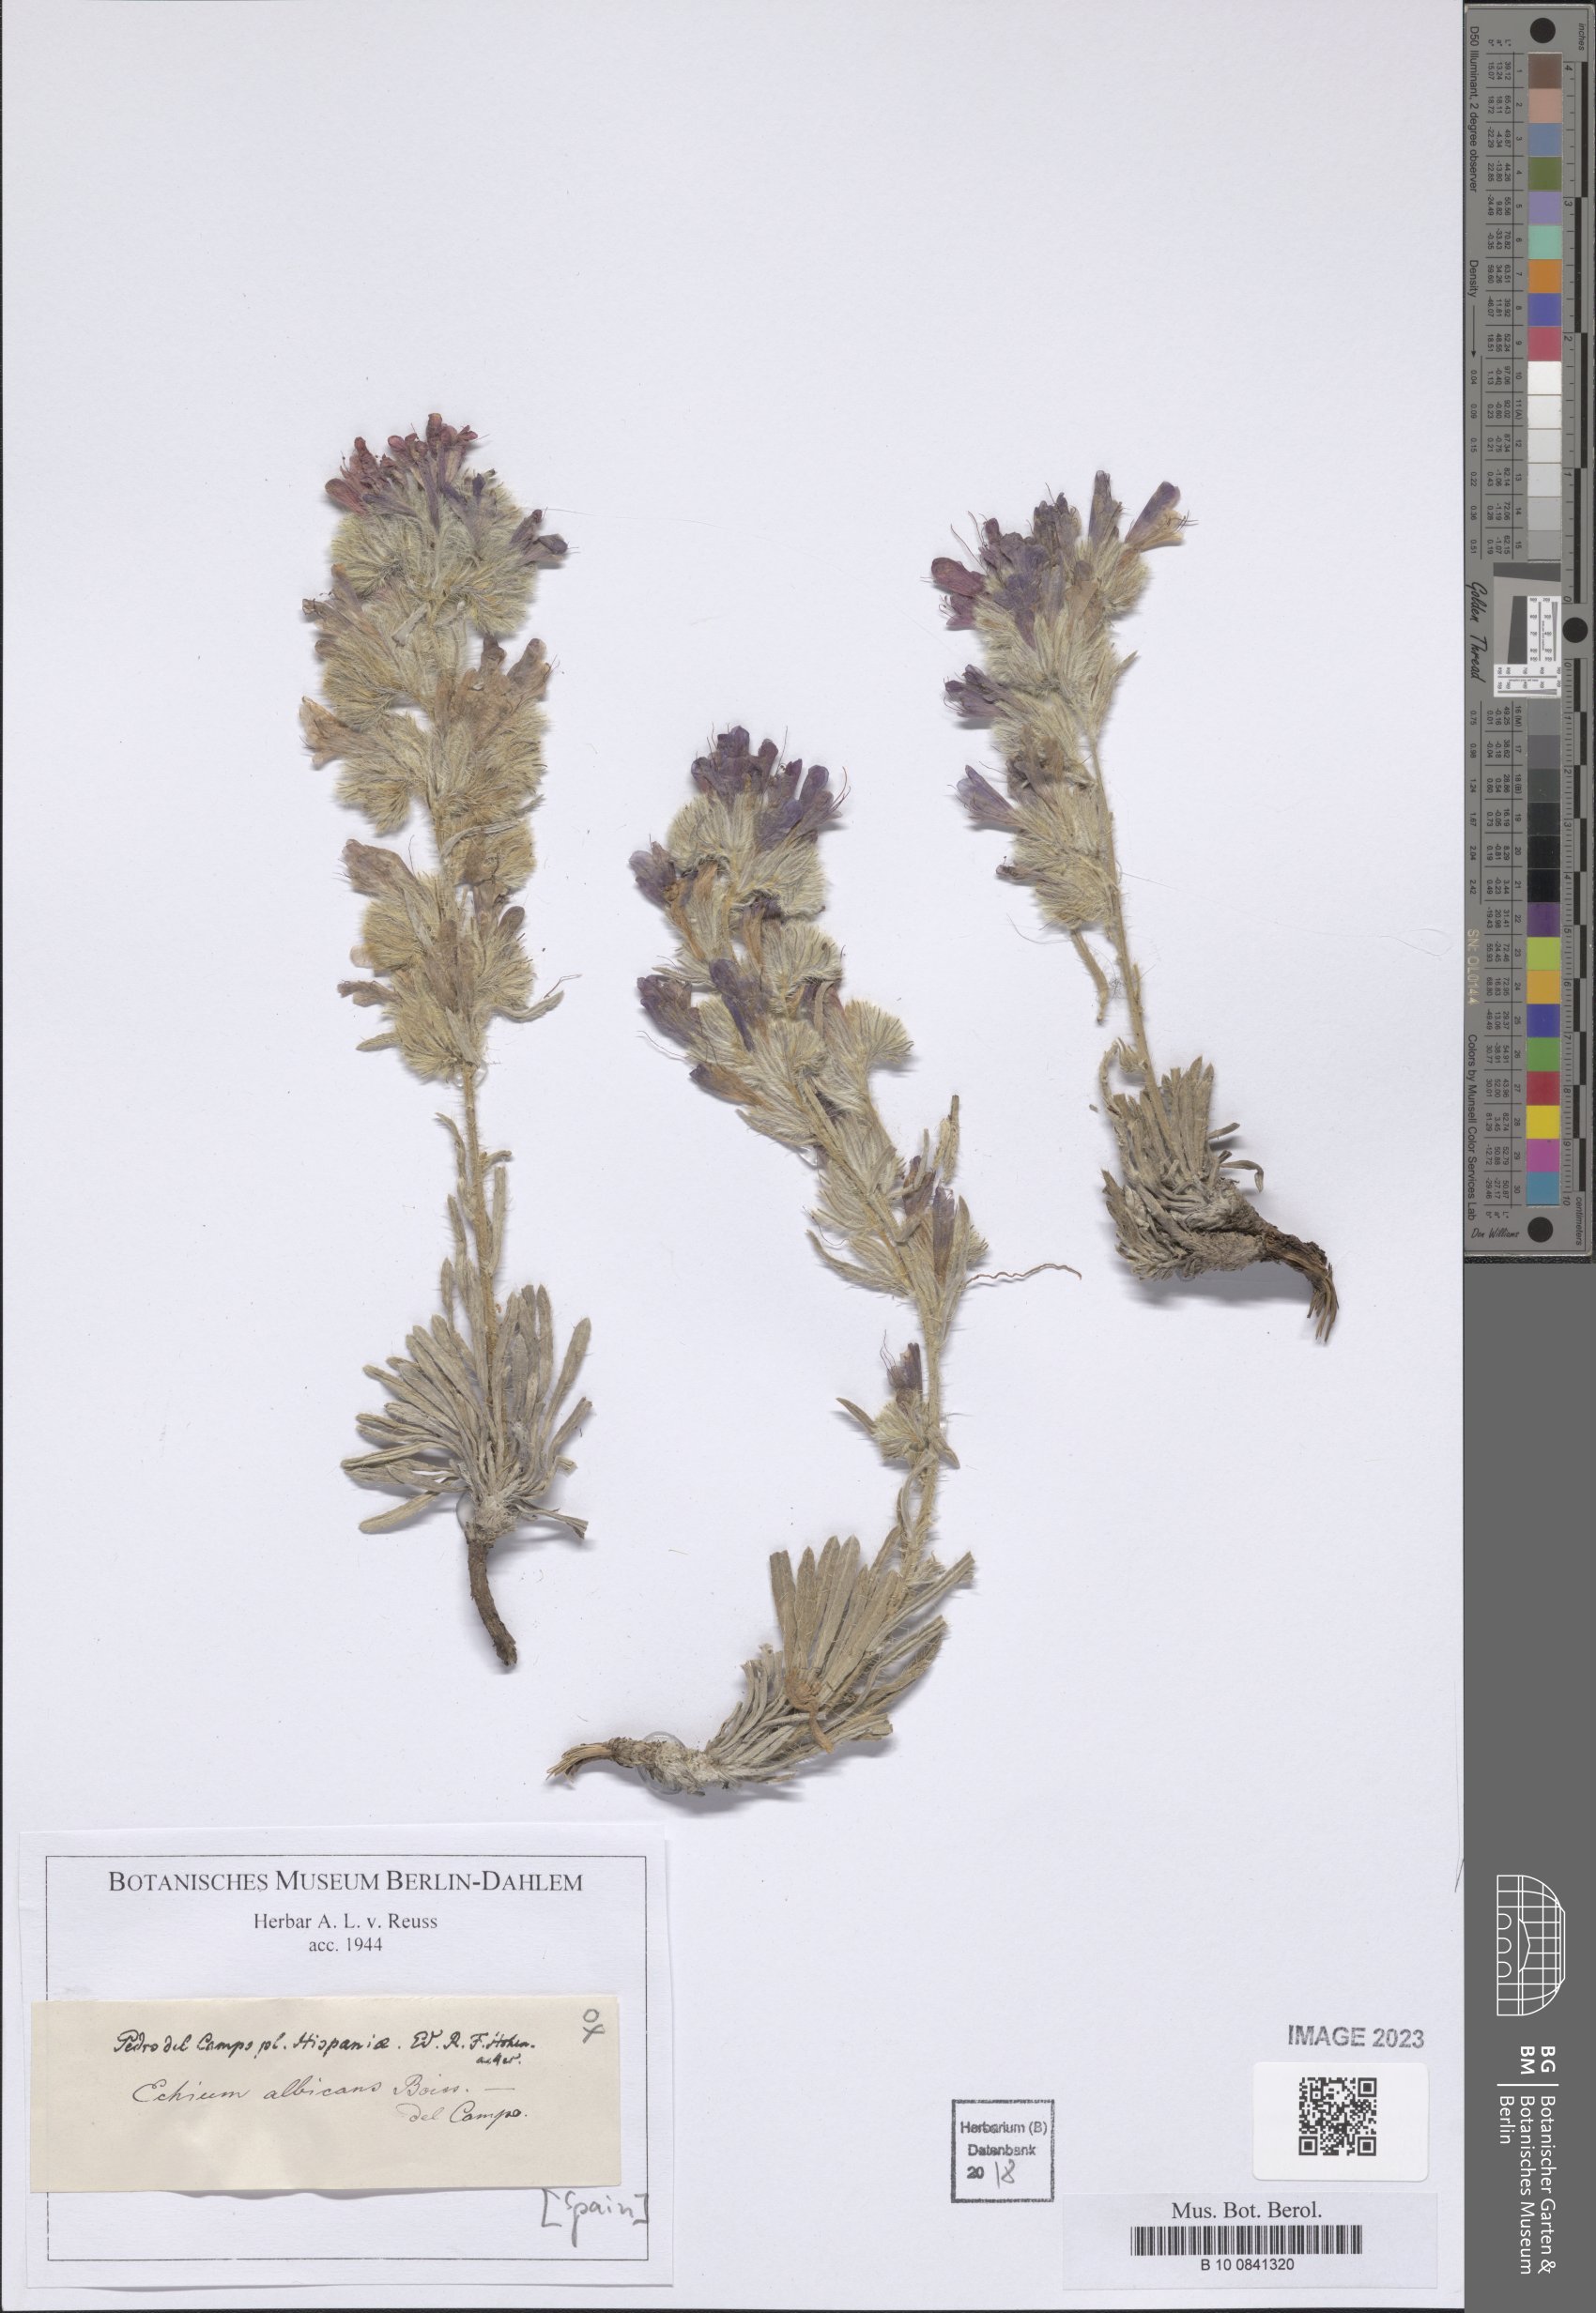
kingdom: Plantae
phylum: Tracheophyta
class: Magnoliopsida
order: Boraginales
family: Boraginaceae
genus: Echium
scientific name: Echium albicans
